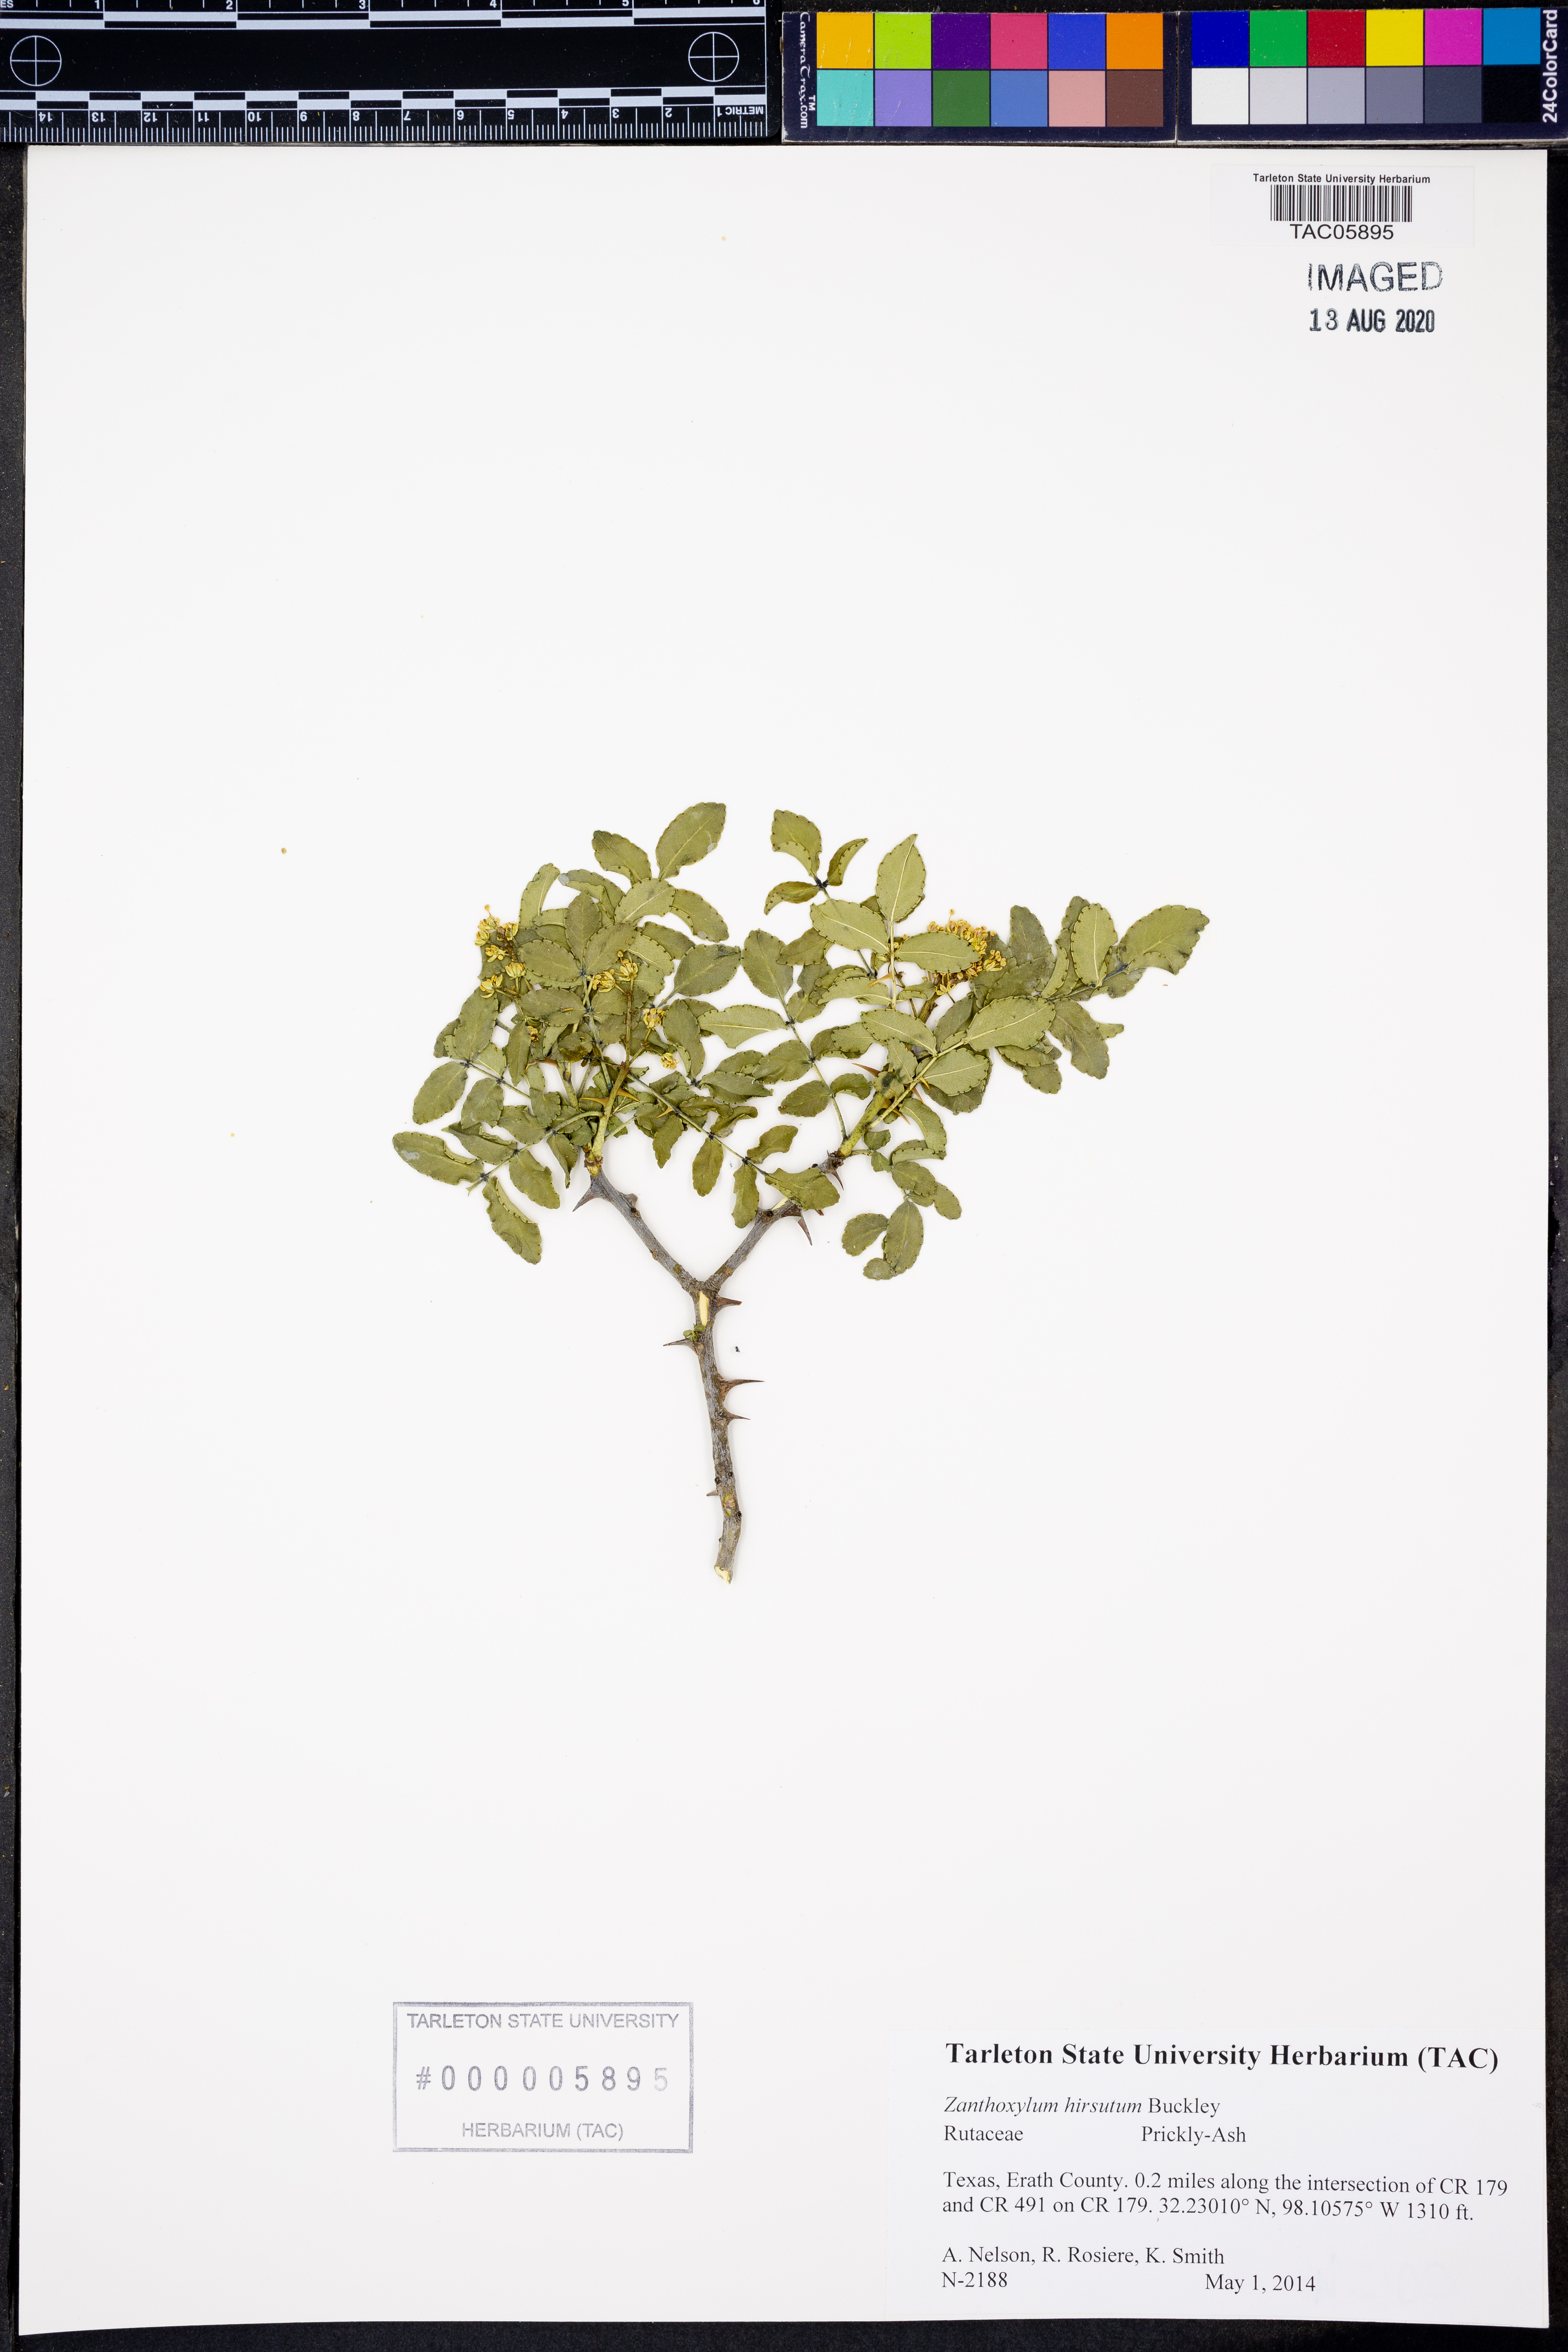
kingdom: Plantae
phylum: Tracheophyta
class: Magnoliopsida
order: Sapindales
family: Rutaceae
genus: Zanthoxylum
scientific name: Zanthoxylum clava-herculis
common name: Hercules'-club
